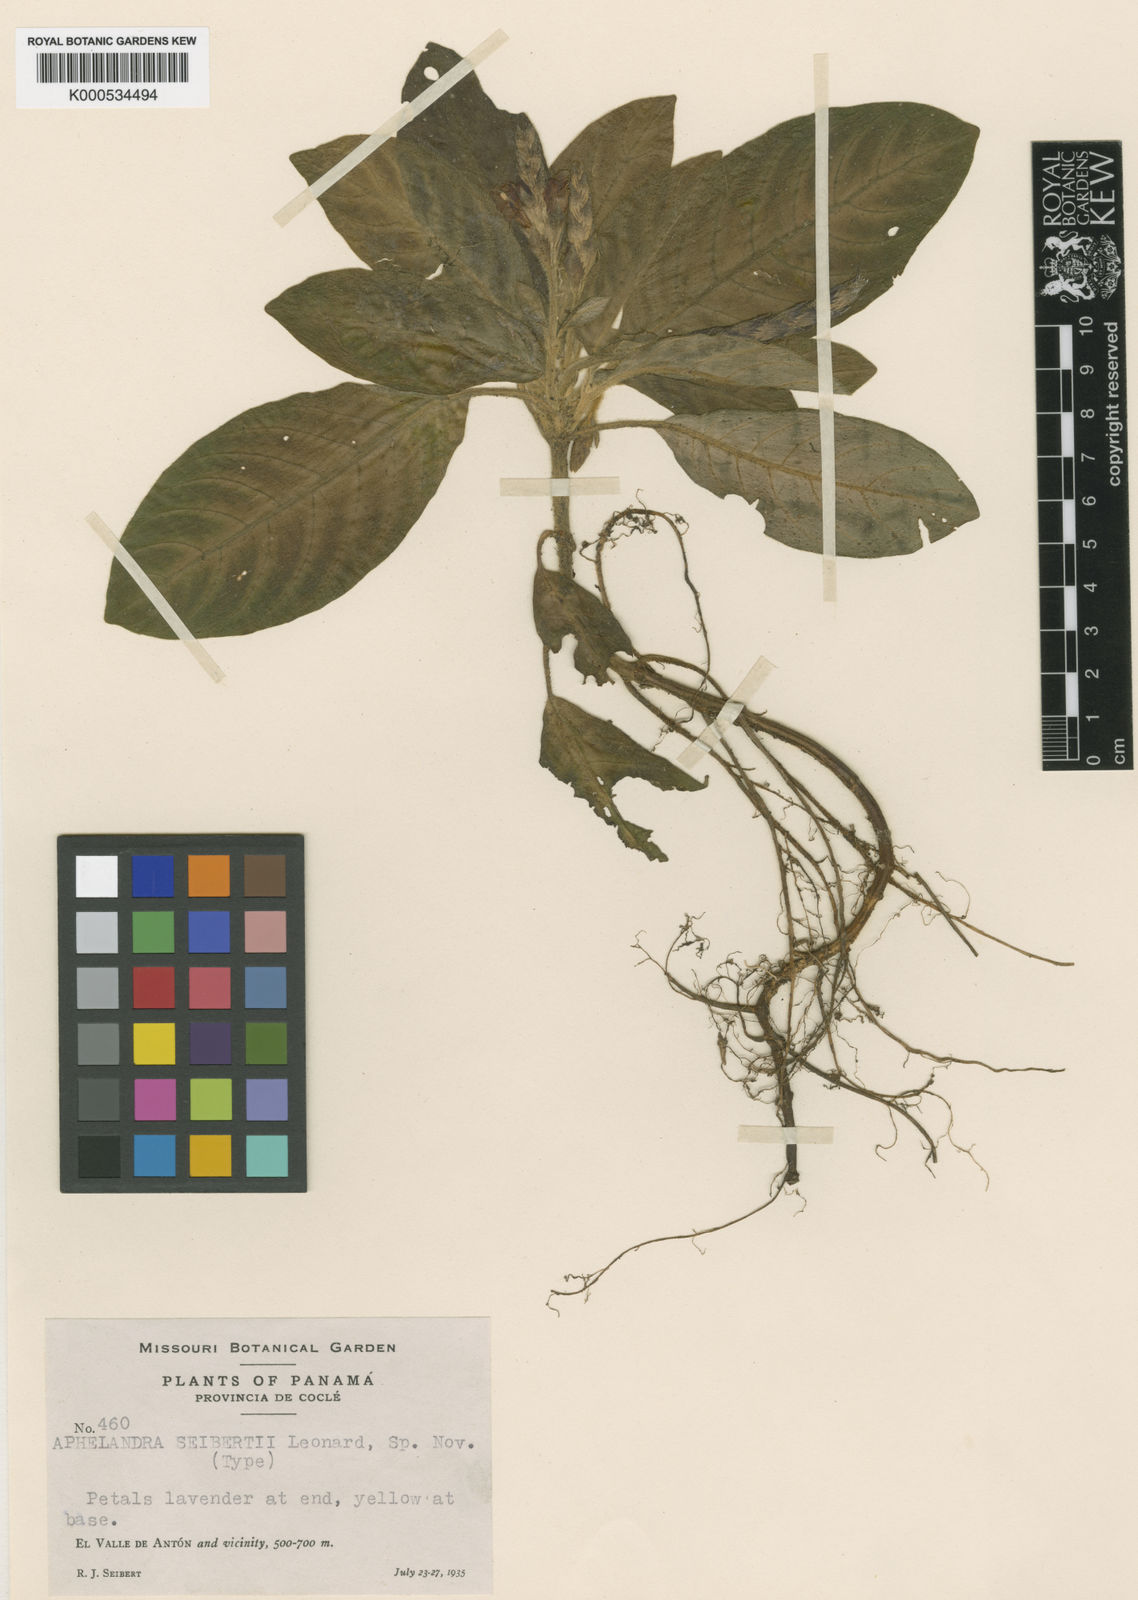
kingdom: Plantae
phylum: Tracheophyta
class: Magnoliopsida
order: Lamiales
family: Acanthaceae
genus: Aphelandra
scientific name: Aphelandra seibertii
